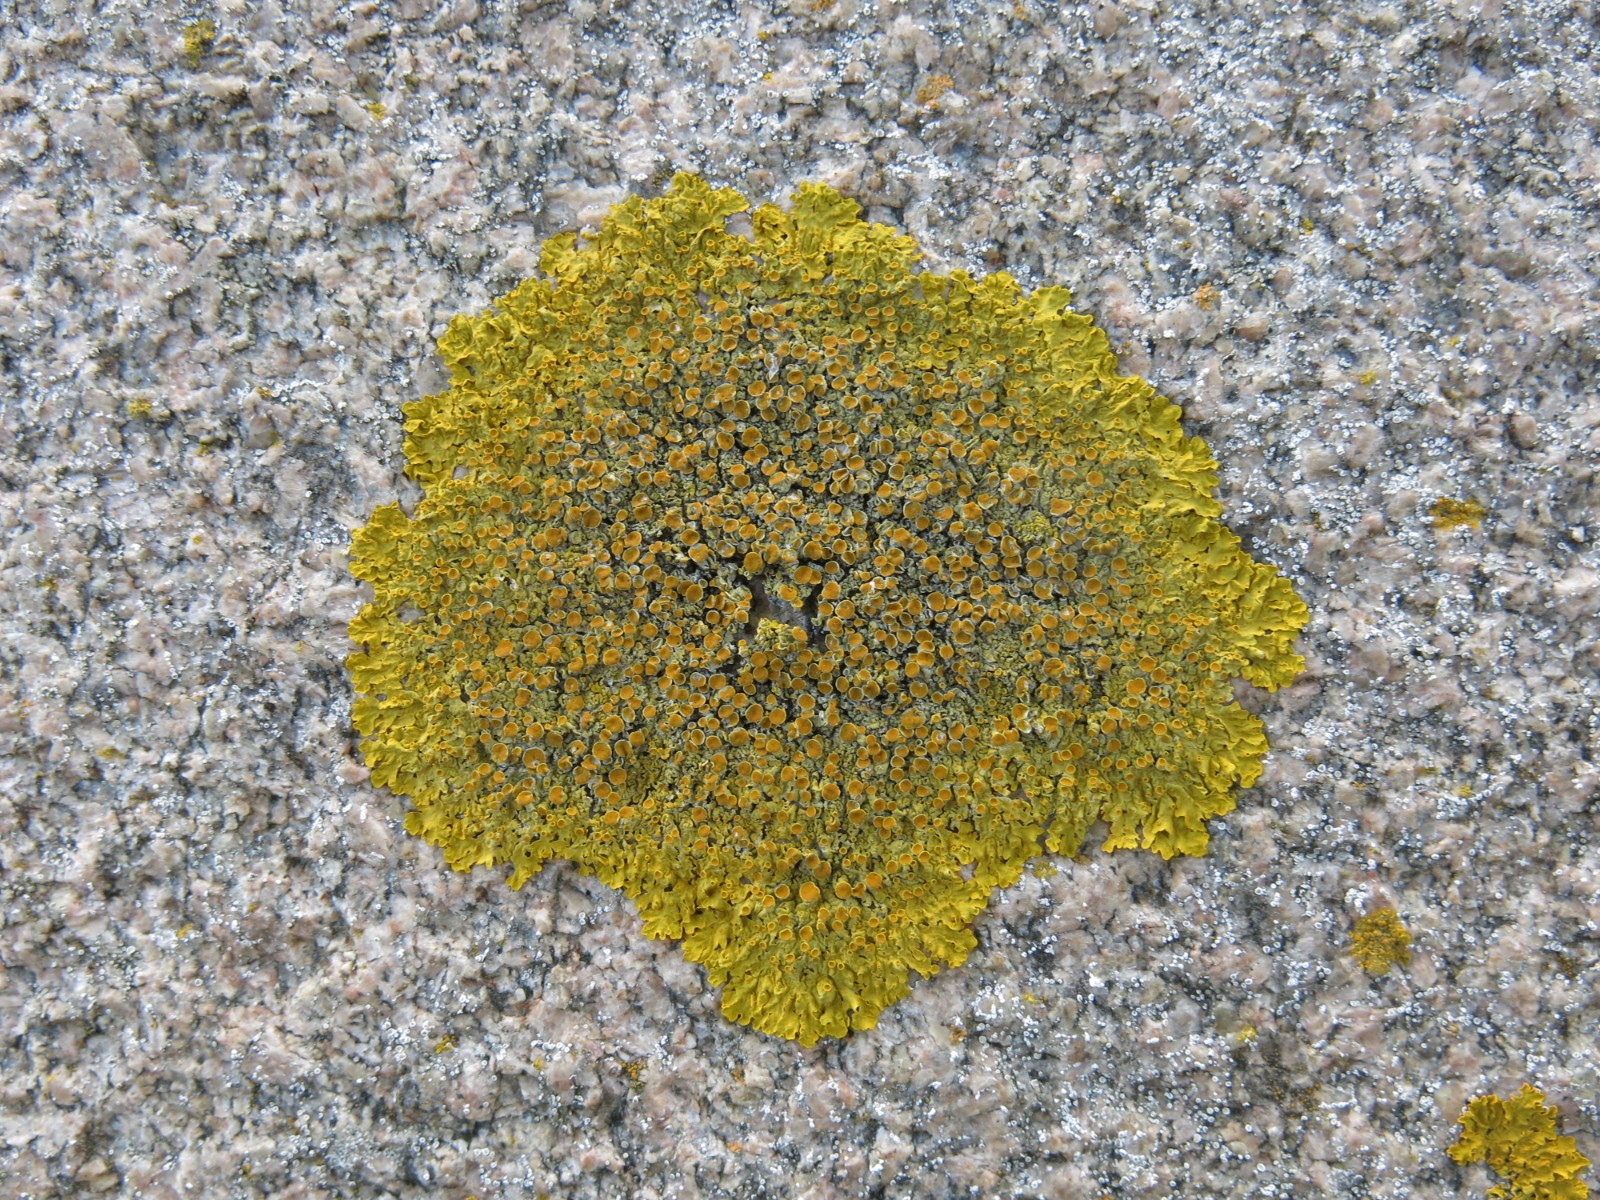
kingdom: Fungi
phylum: Ascomycota
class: Lecanoromycetes
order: Teloschistales
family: Teloschistaceae
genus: Xanthoria
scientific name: Xanthoria parietina
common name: almindelig væggelav
